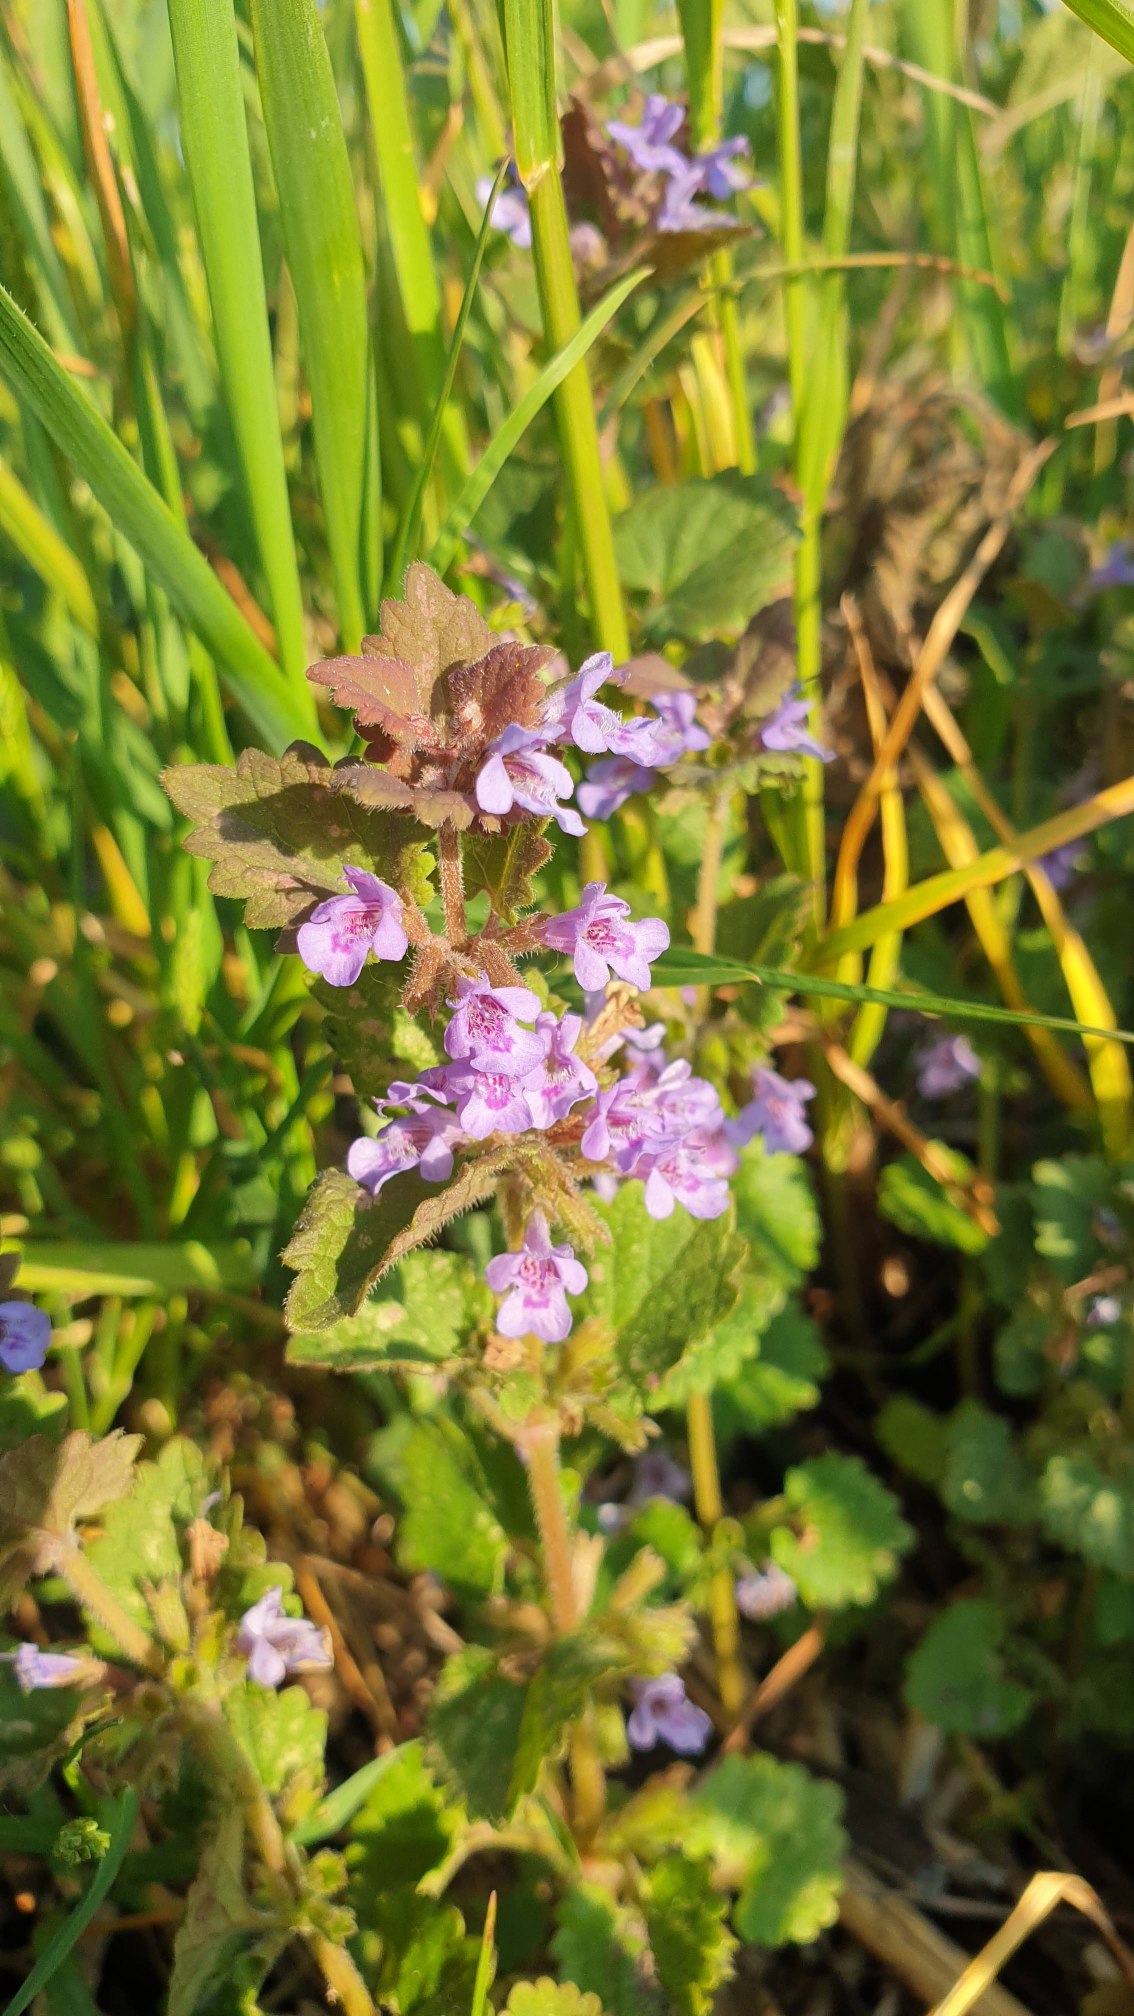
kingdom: Plantae
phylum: Tracheophyta
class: Magnoliopsida
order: Lamiales
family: Lamiaceae
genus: Glechoma
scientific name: Glechoma hederacea
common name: Korsknap
